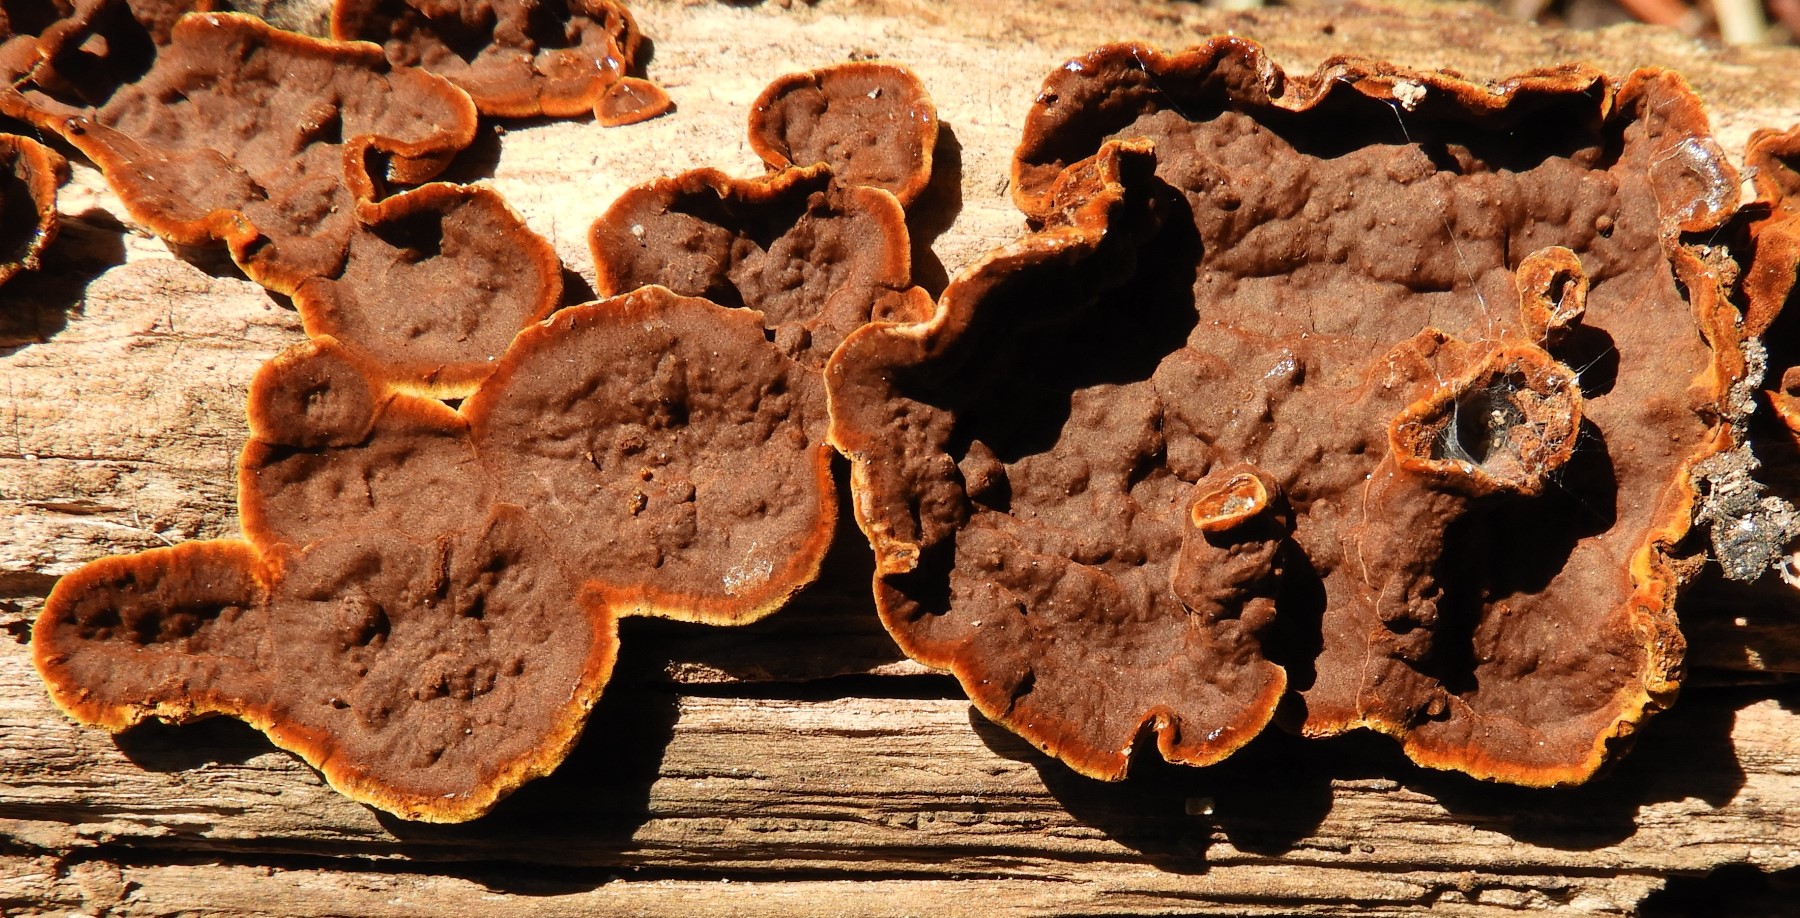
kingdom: Fungi
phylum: Basidiomycota
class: Agaricomycetes
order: Hymenochaetales
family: Hymenochaetaceae
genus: Hymenochaete
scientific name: Hymenochaete rubiginosa
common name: stiv ruslædersvamp
